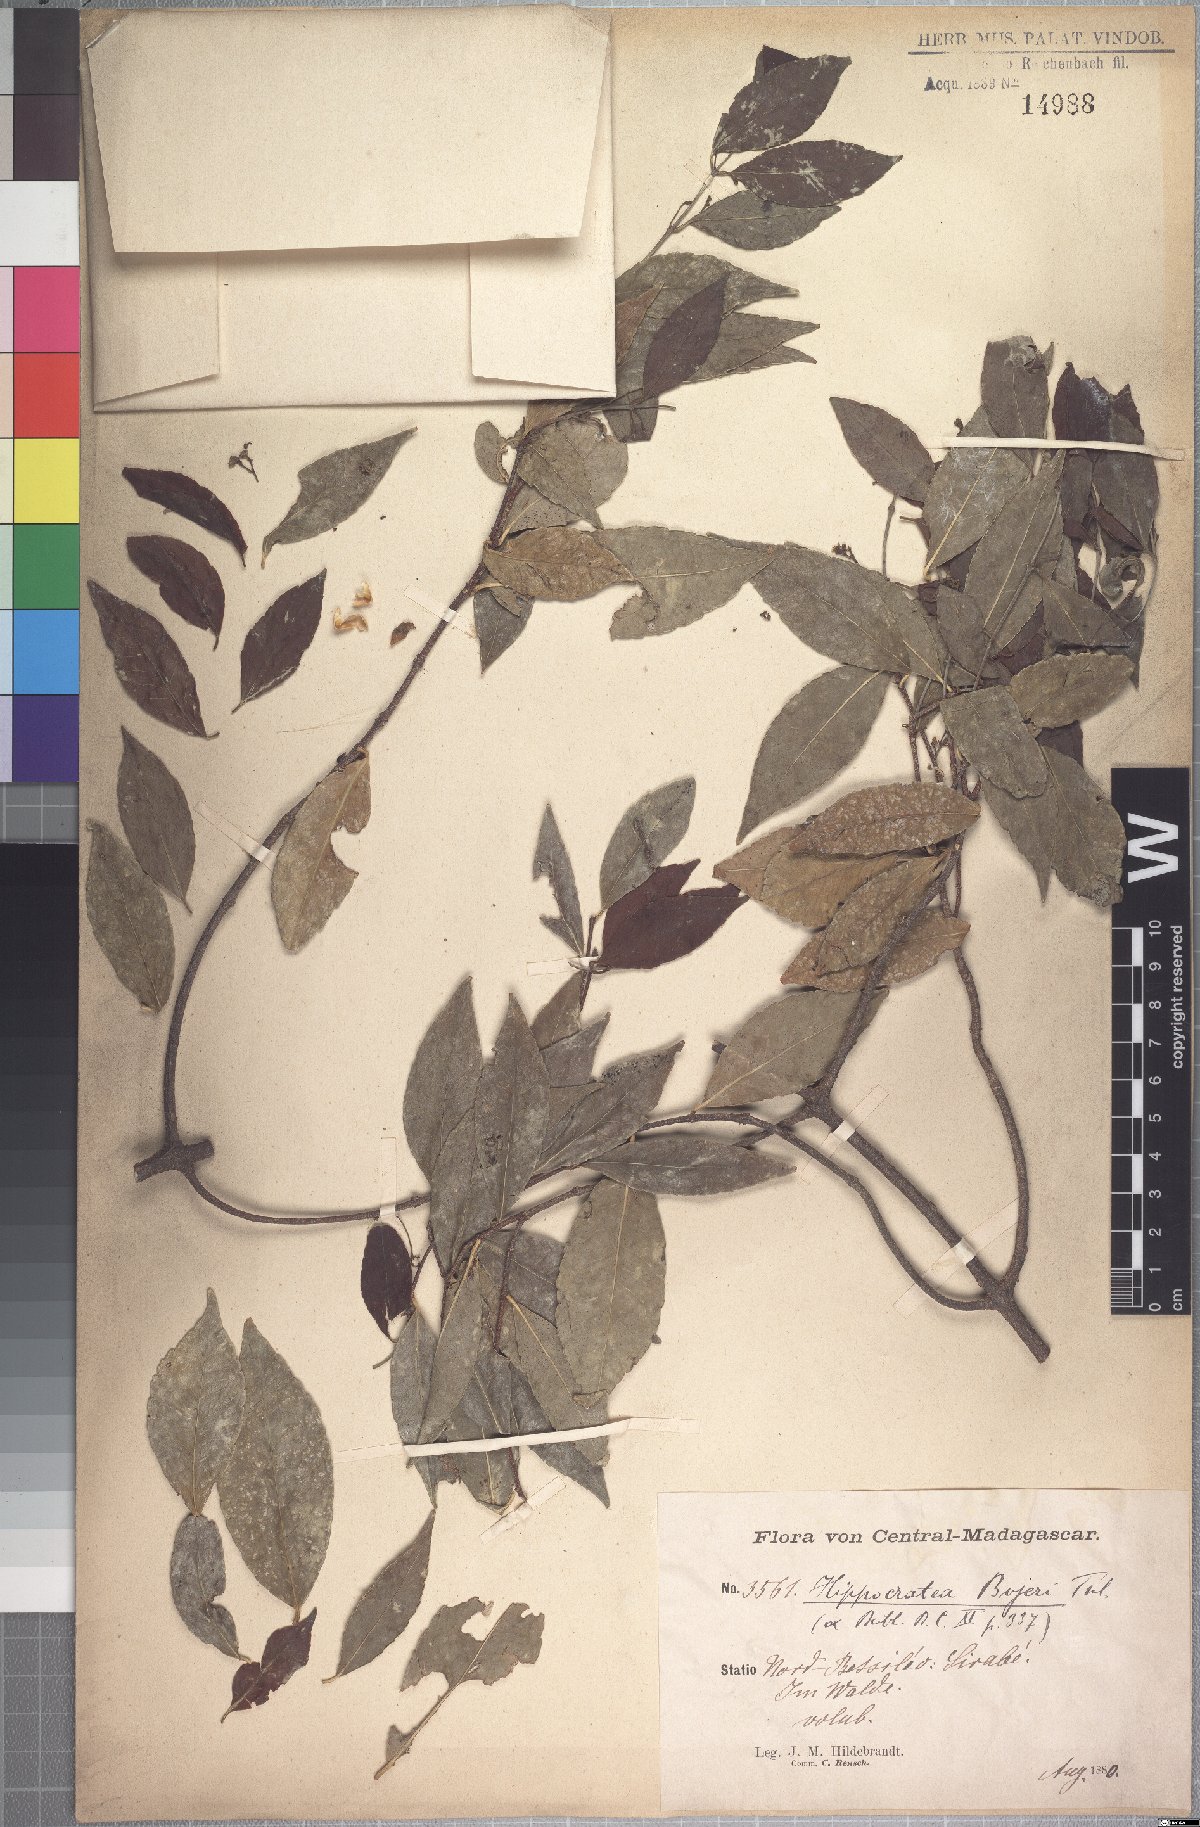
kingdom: Plantae
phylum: Tracheophyta
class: Magnoliopsida
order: Celastrales
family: Celastraceae
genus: Pristimera
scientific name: Pristimera bojeri
